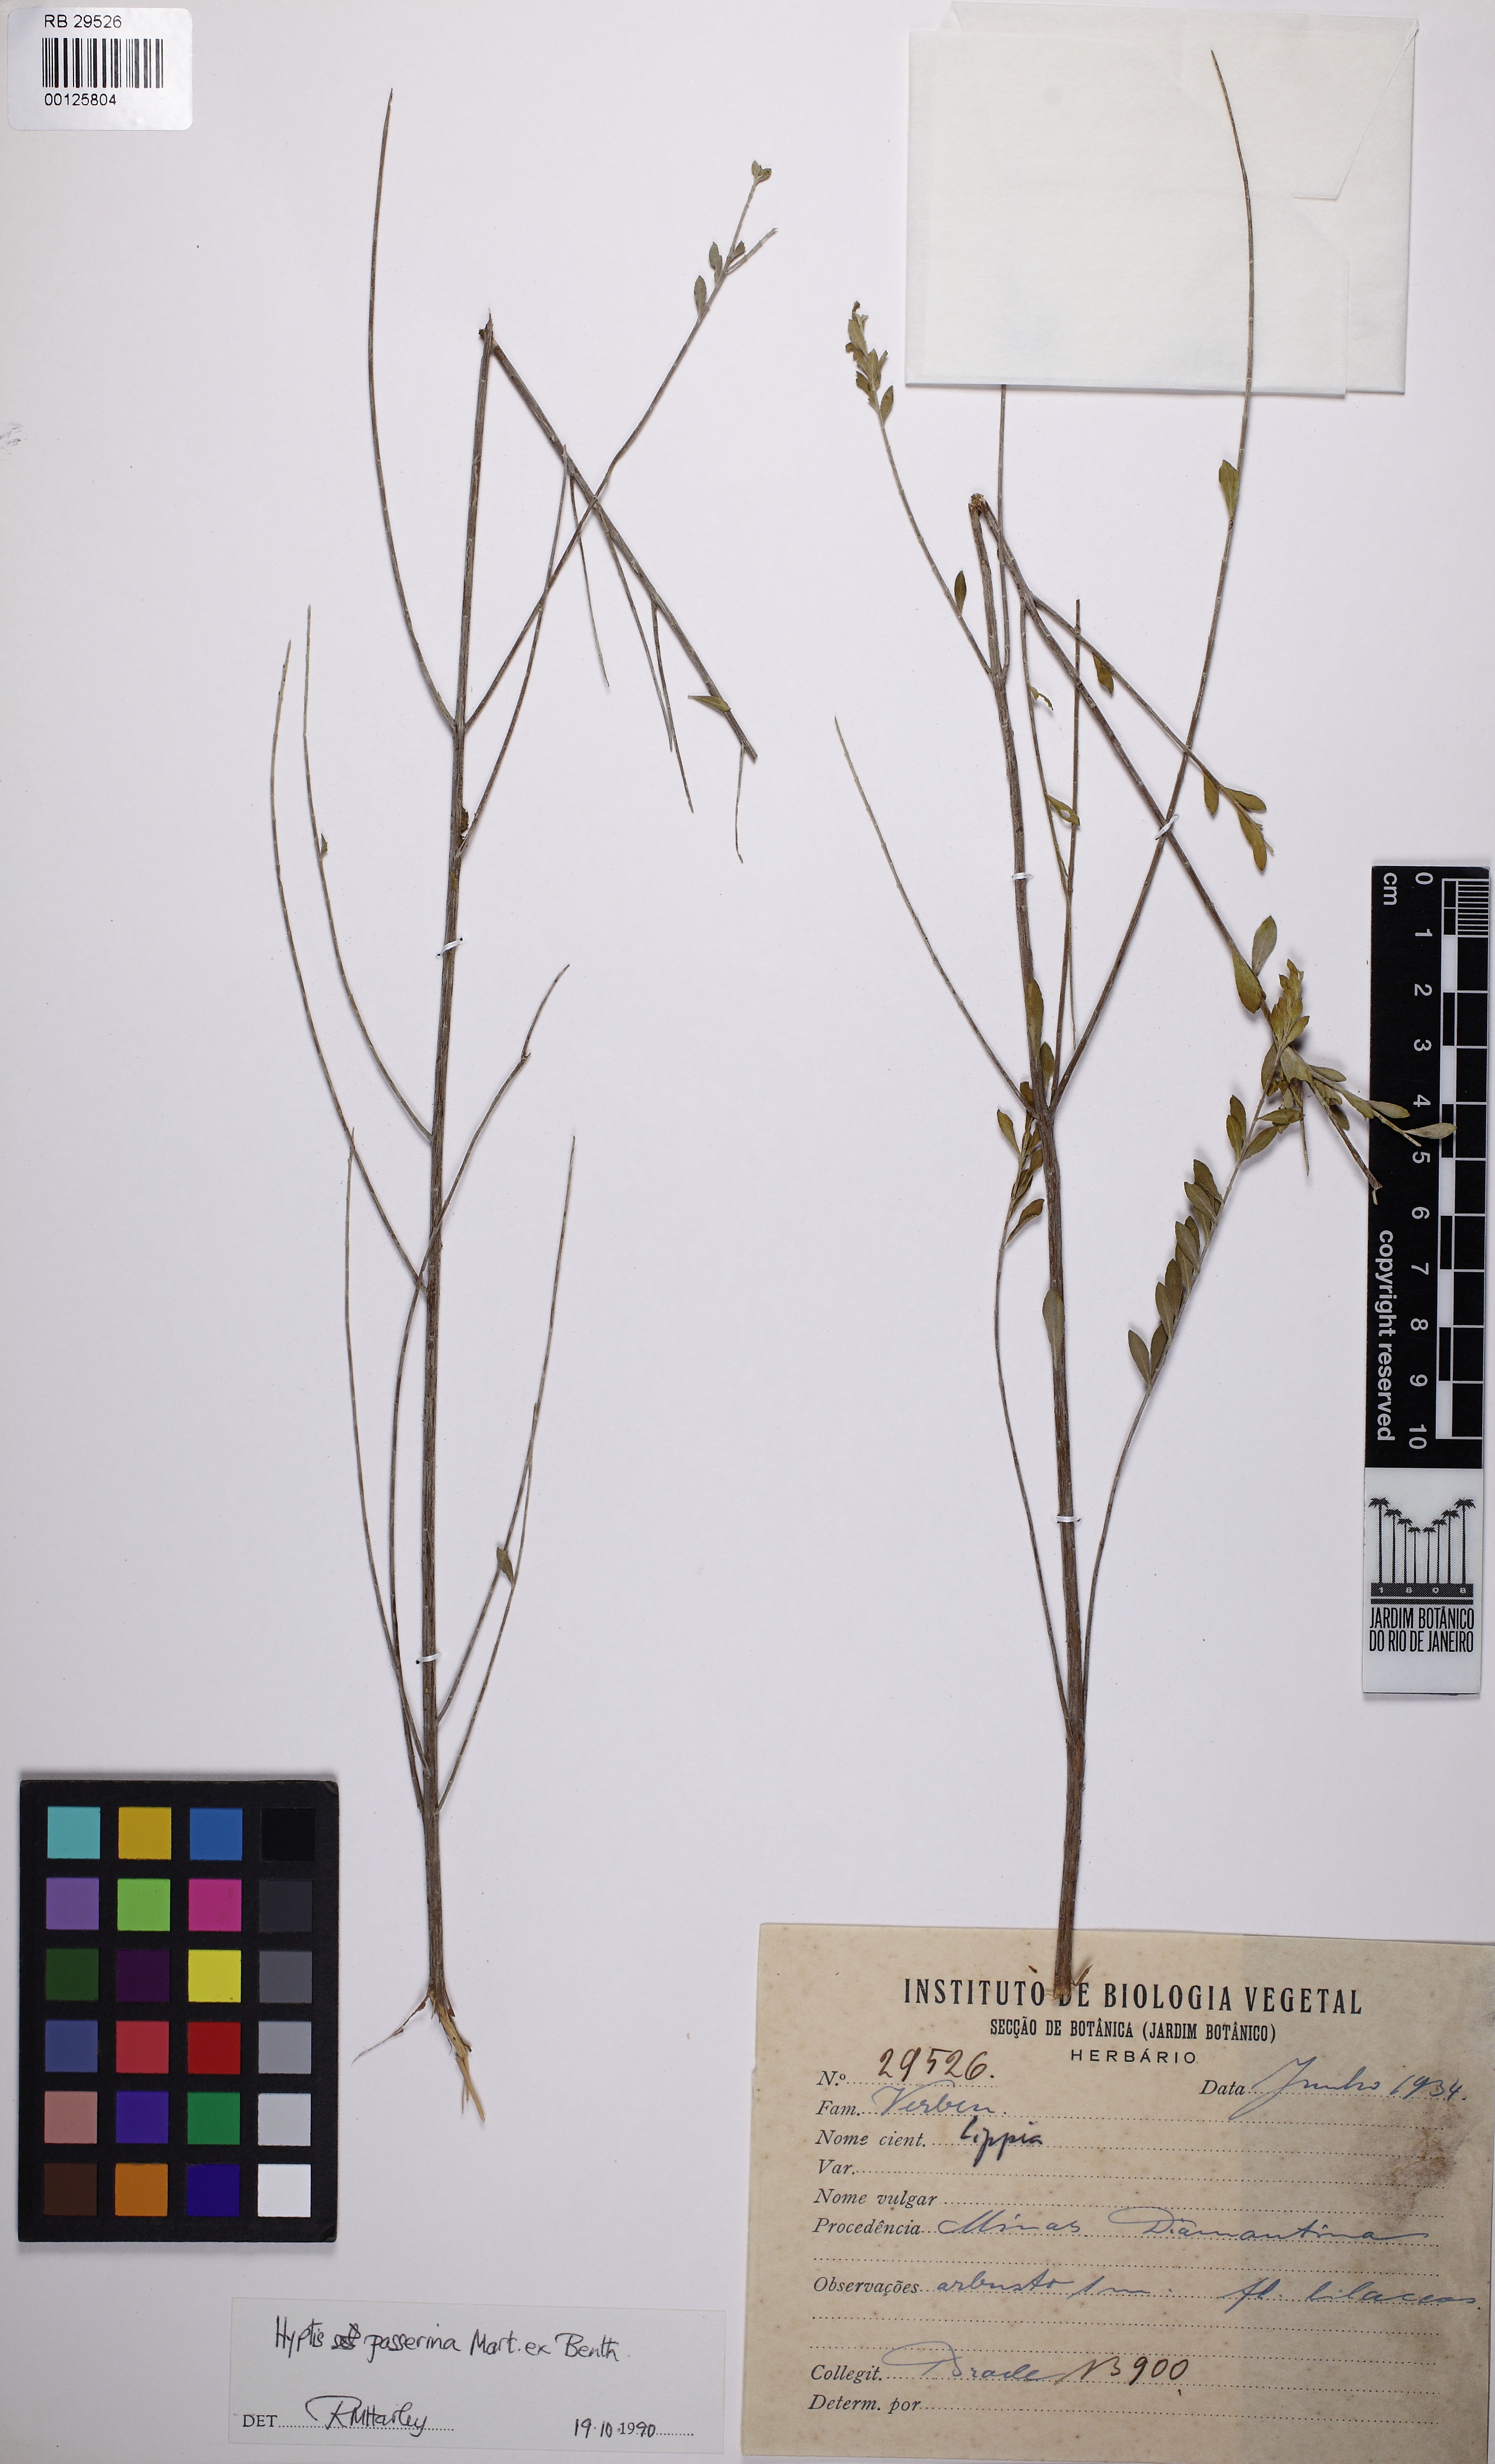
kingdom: Plantae
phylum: Tracheophyta
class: Magnoliopsida
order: Lamiales
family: Lamiaceae
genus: Hyptis
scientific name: Hyptis passerina
